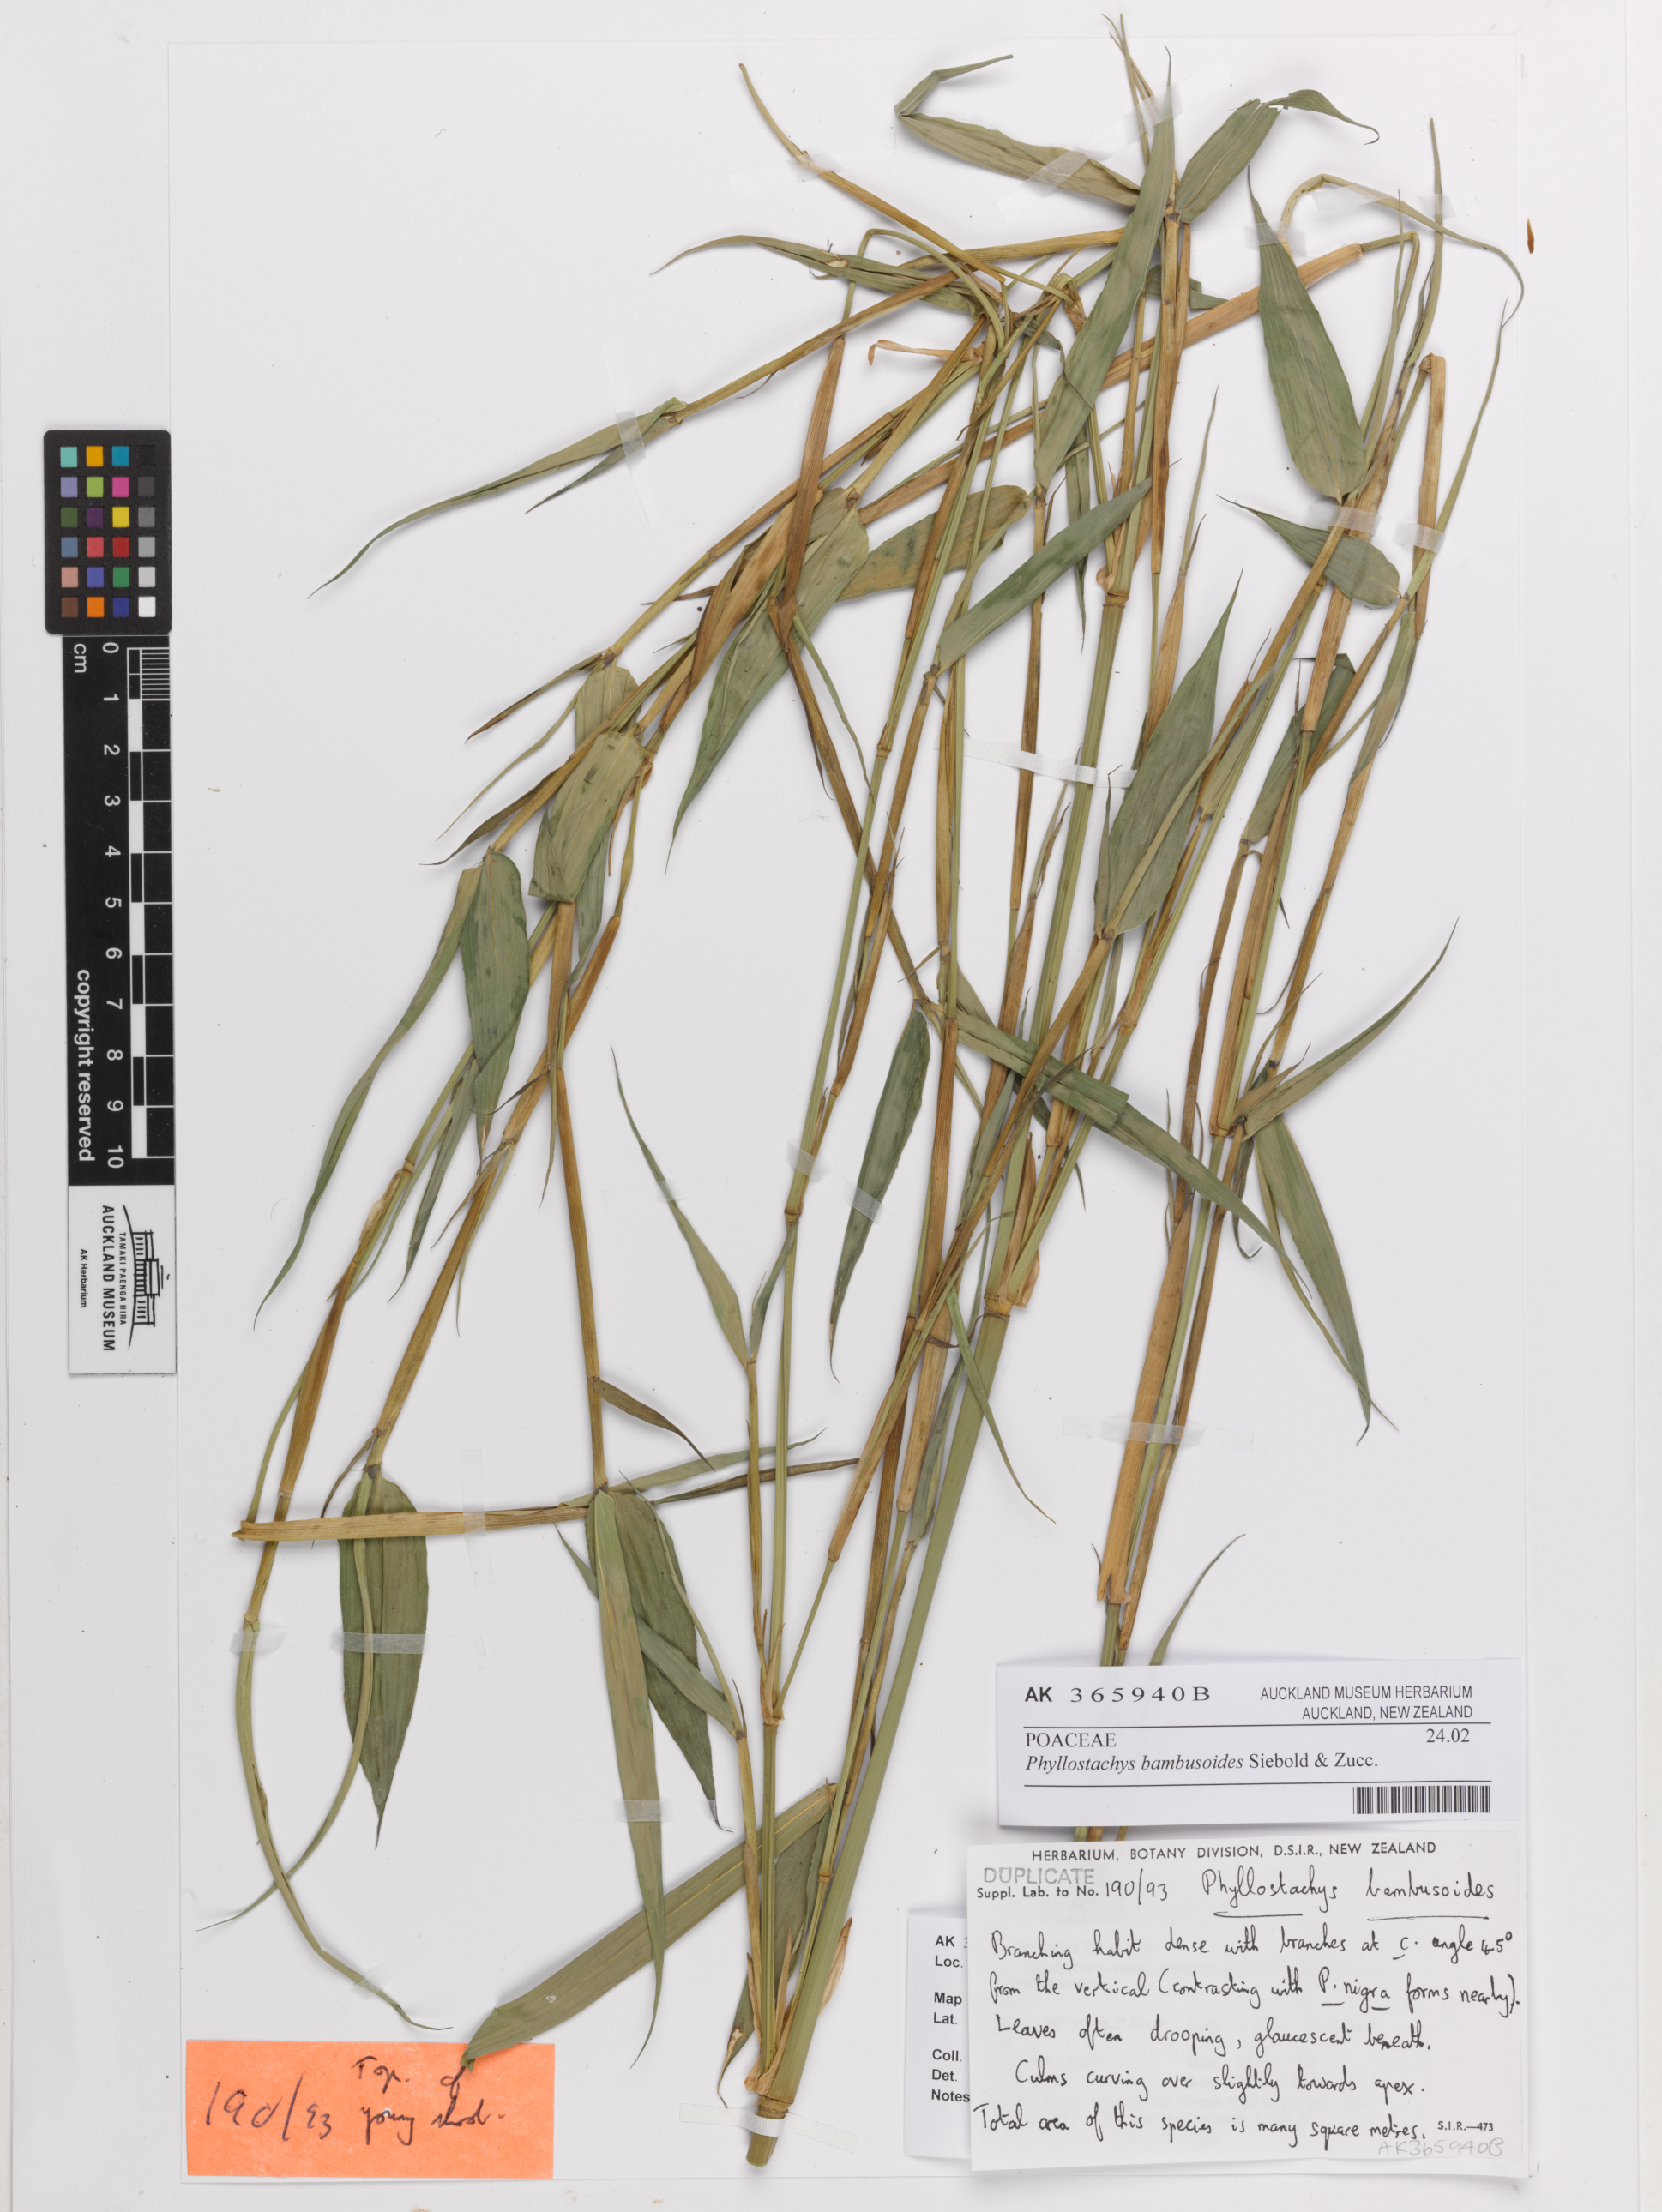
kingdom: Plantae
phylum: Tracheophyta
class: Liliopsida
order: Poales
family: Poaceae
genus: Phyllostachys
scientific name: Phyllostachys reticulata
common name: Bamboo
